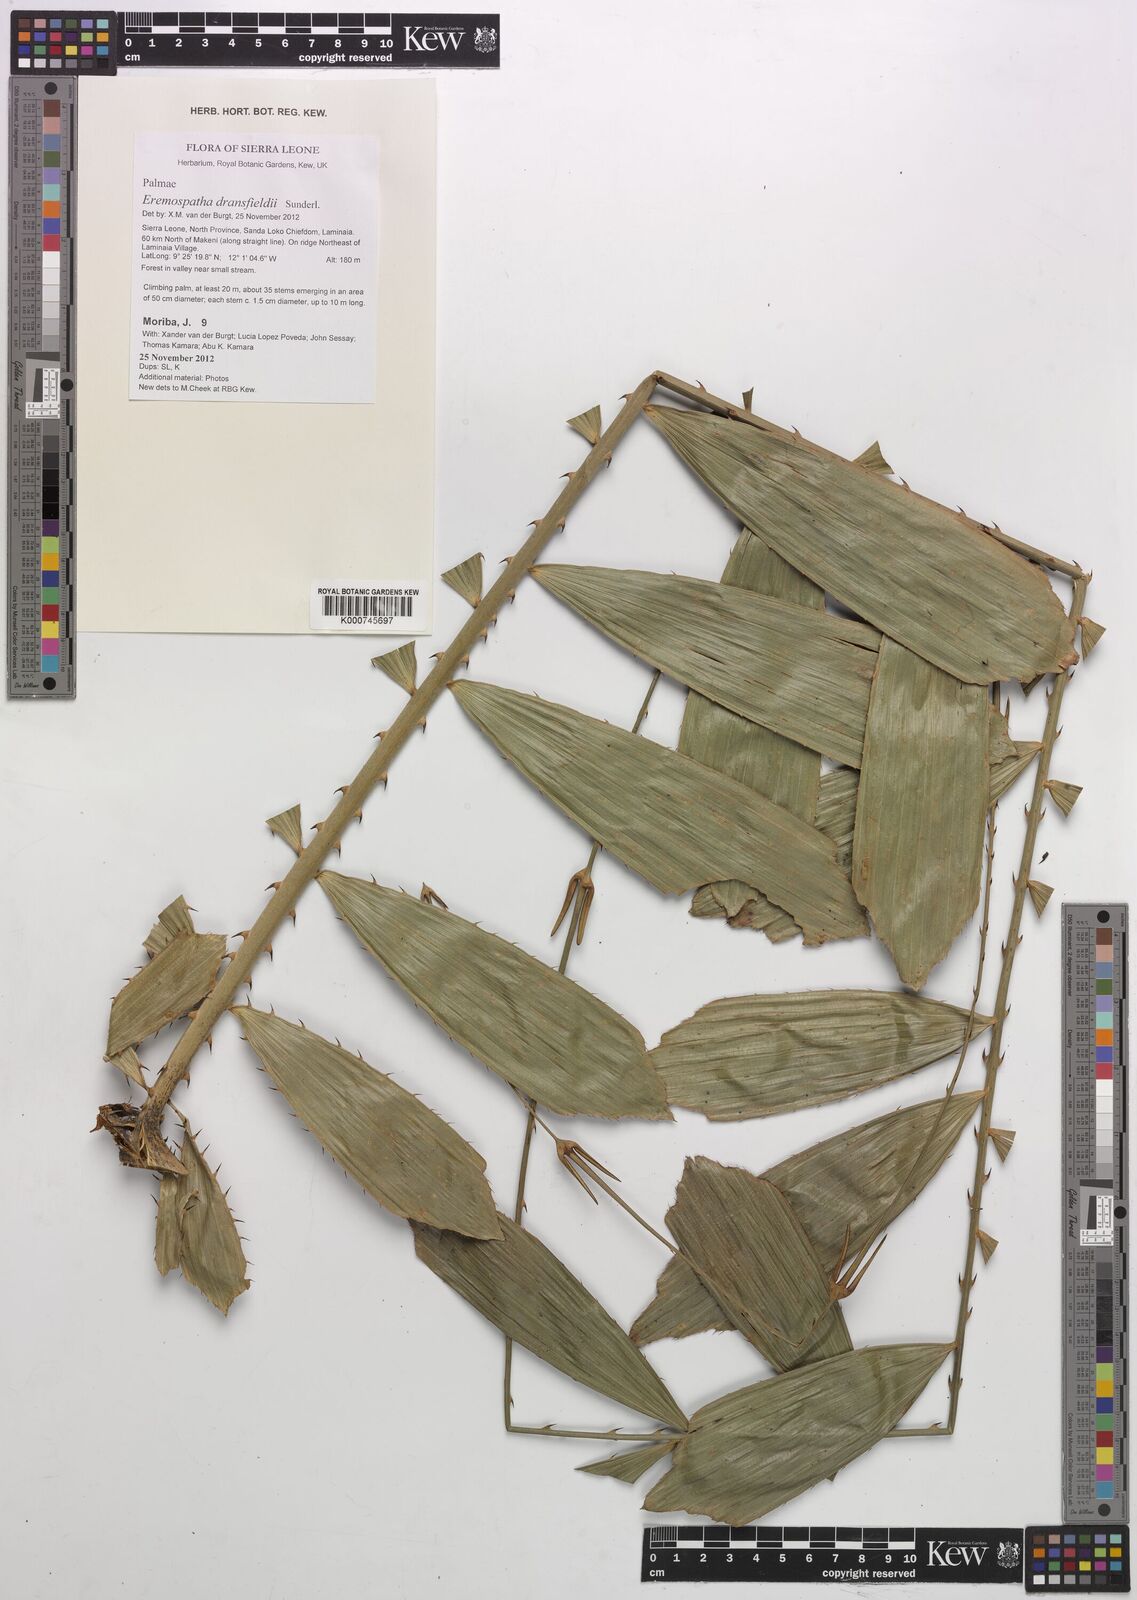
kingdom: Plantae
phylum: Tracheophyta
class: Liliopsida
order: Arecales
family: Arecaceae
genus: Eremospatha
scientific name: Eremospatha dransfieldii
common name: Rattan
